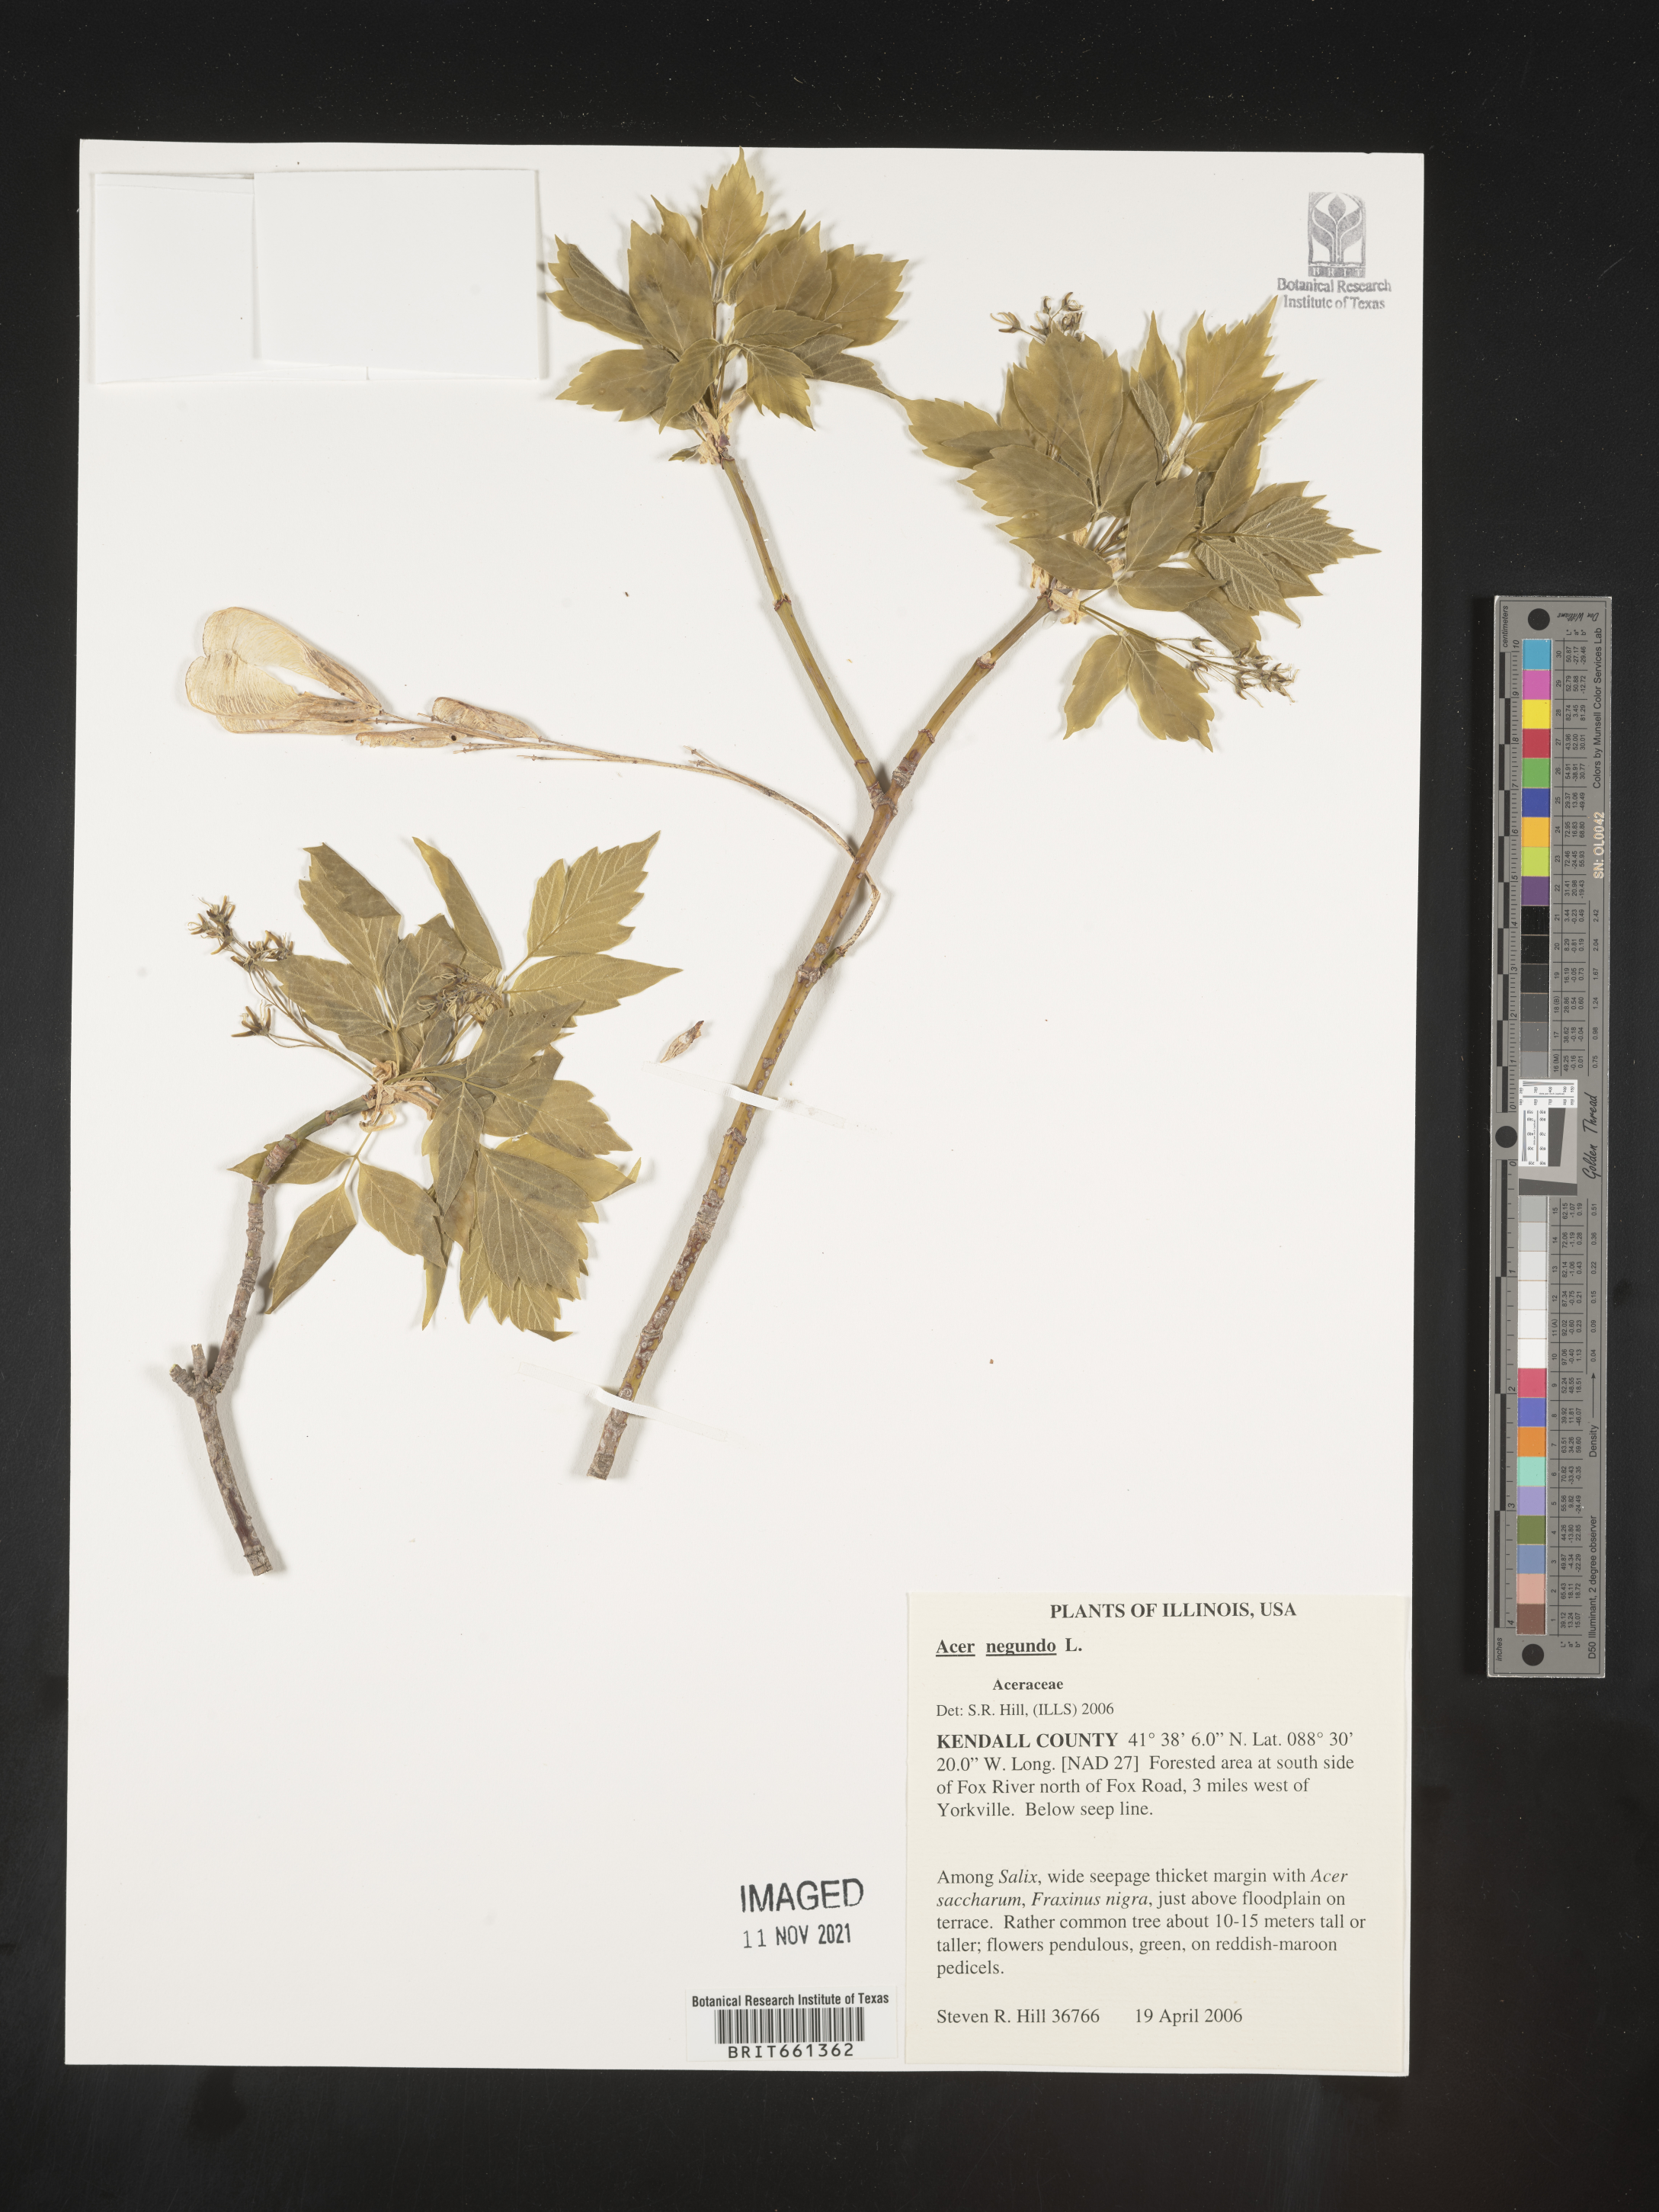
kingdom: Plantae
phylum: Tracheophyta
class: Magnoliopsida
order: Sapindales
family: Sapindaceae
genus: Acer
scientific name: Acer negundo
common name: Ashleaf maple
